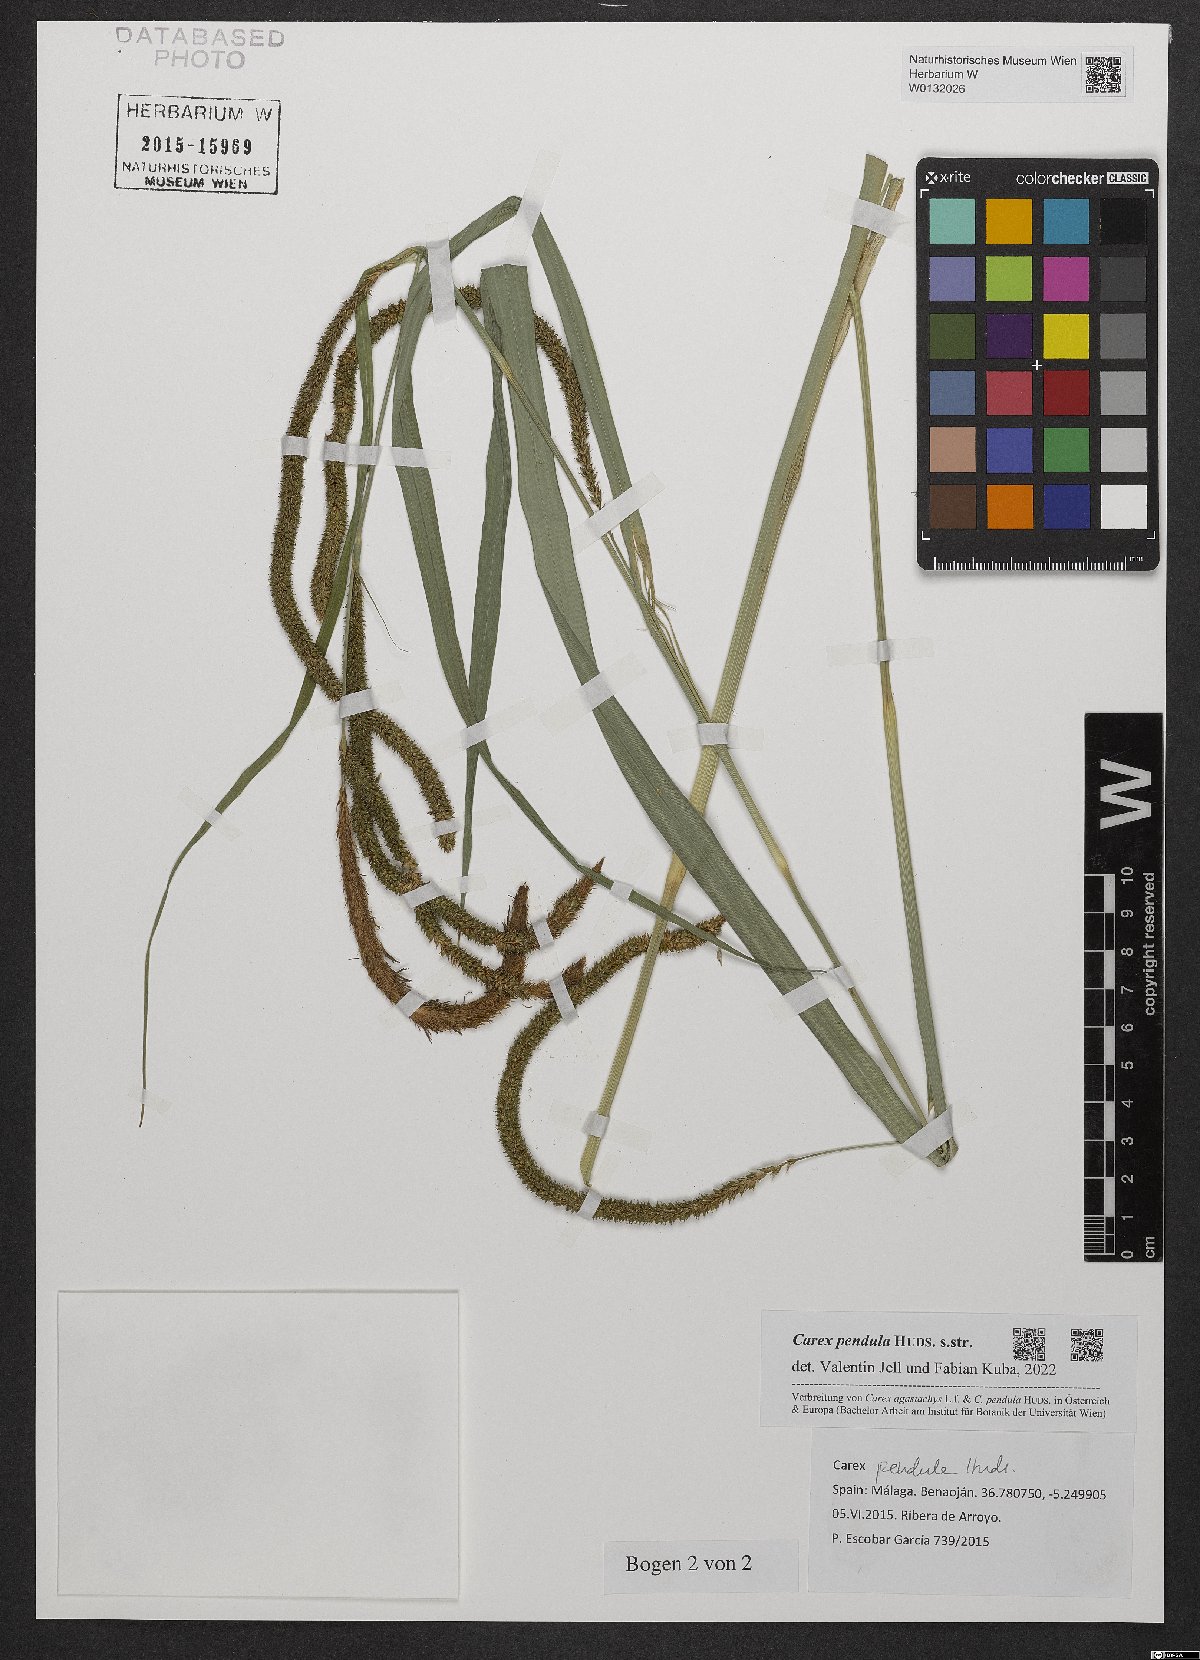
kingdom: Plantae
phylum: Tracheophyta
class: Liliopsida
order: Poales
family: Cyperaceae
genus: Carex
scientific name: Carex pendula
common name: Pendulous sedge
